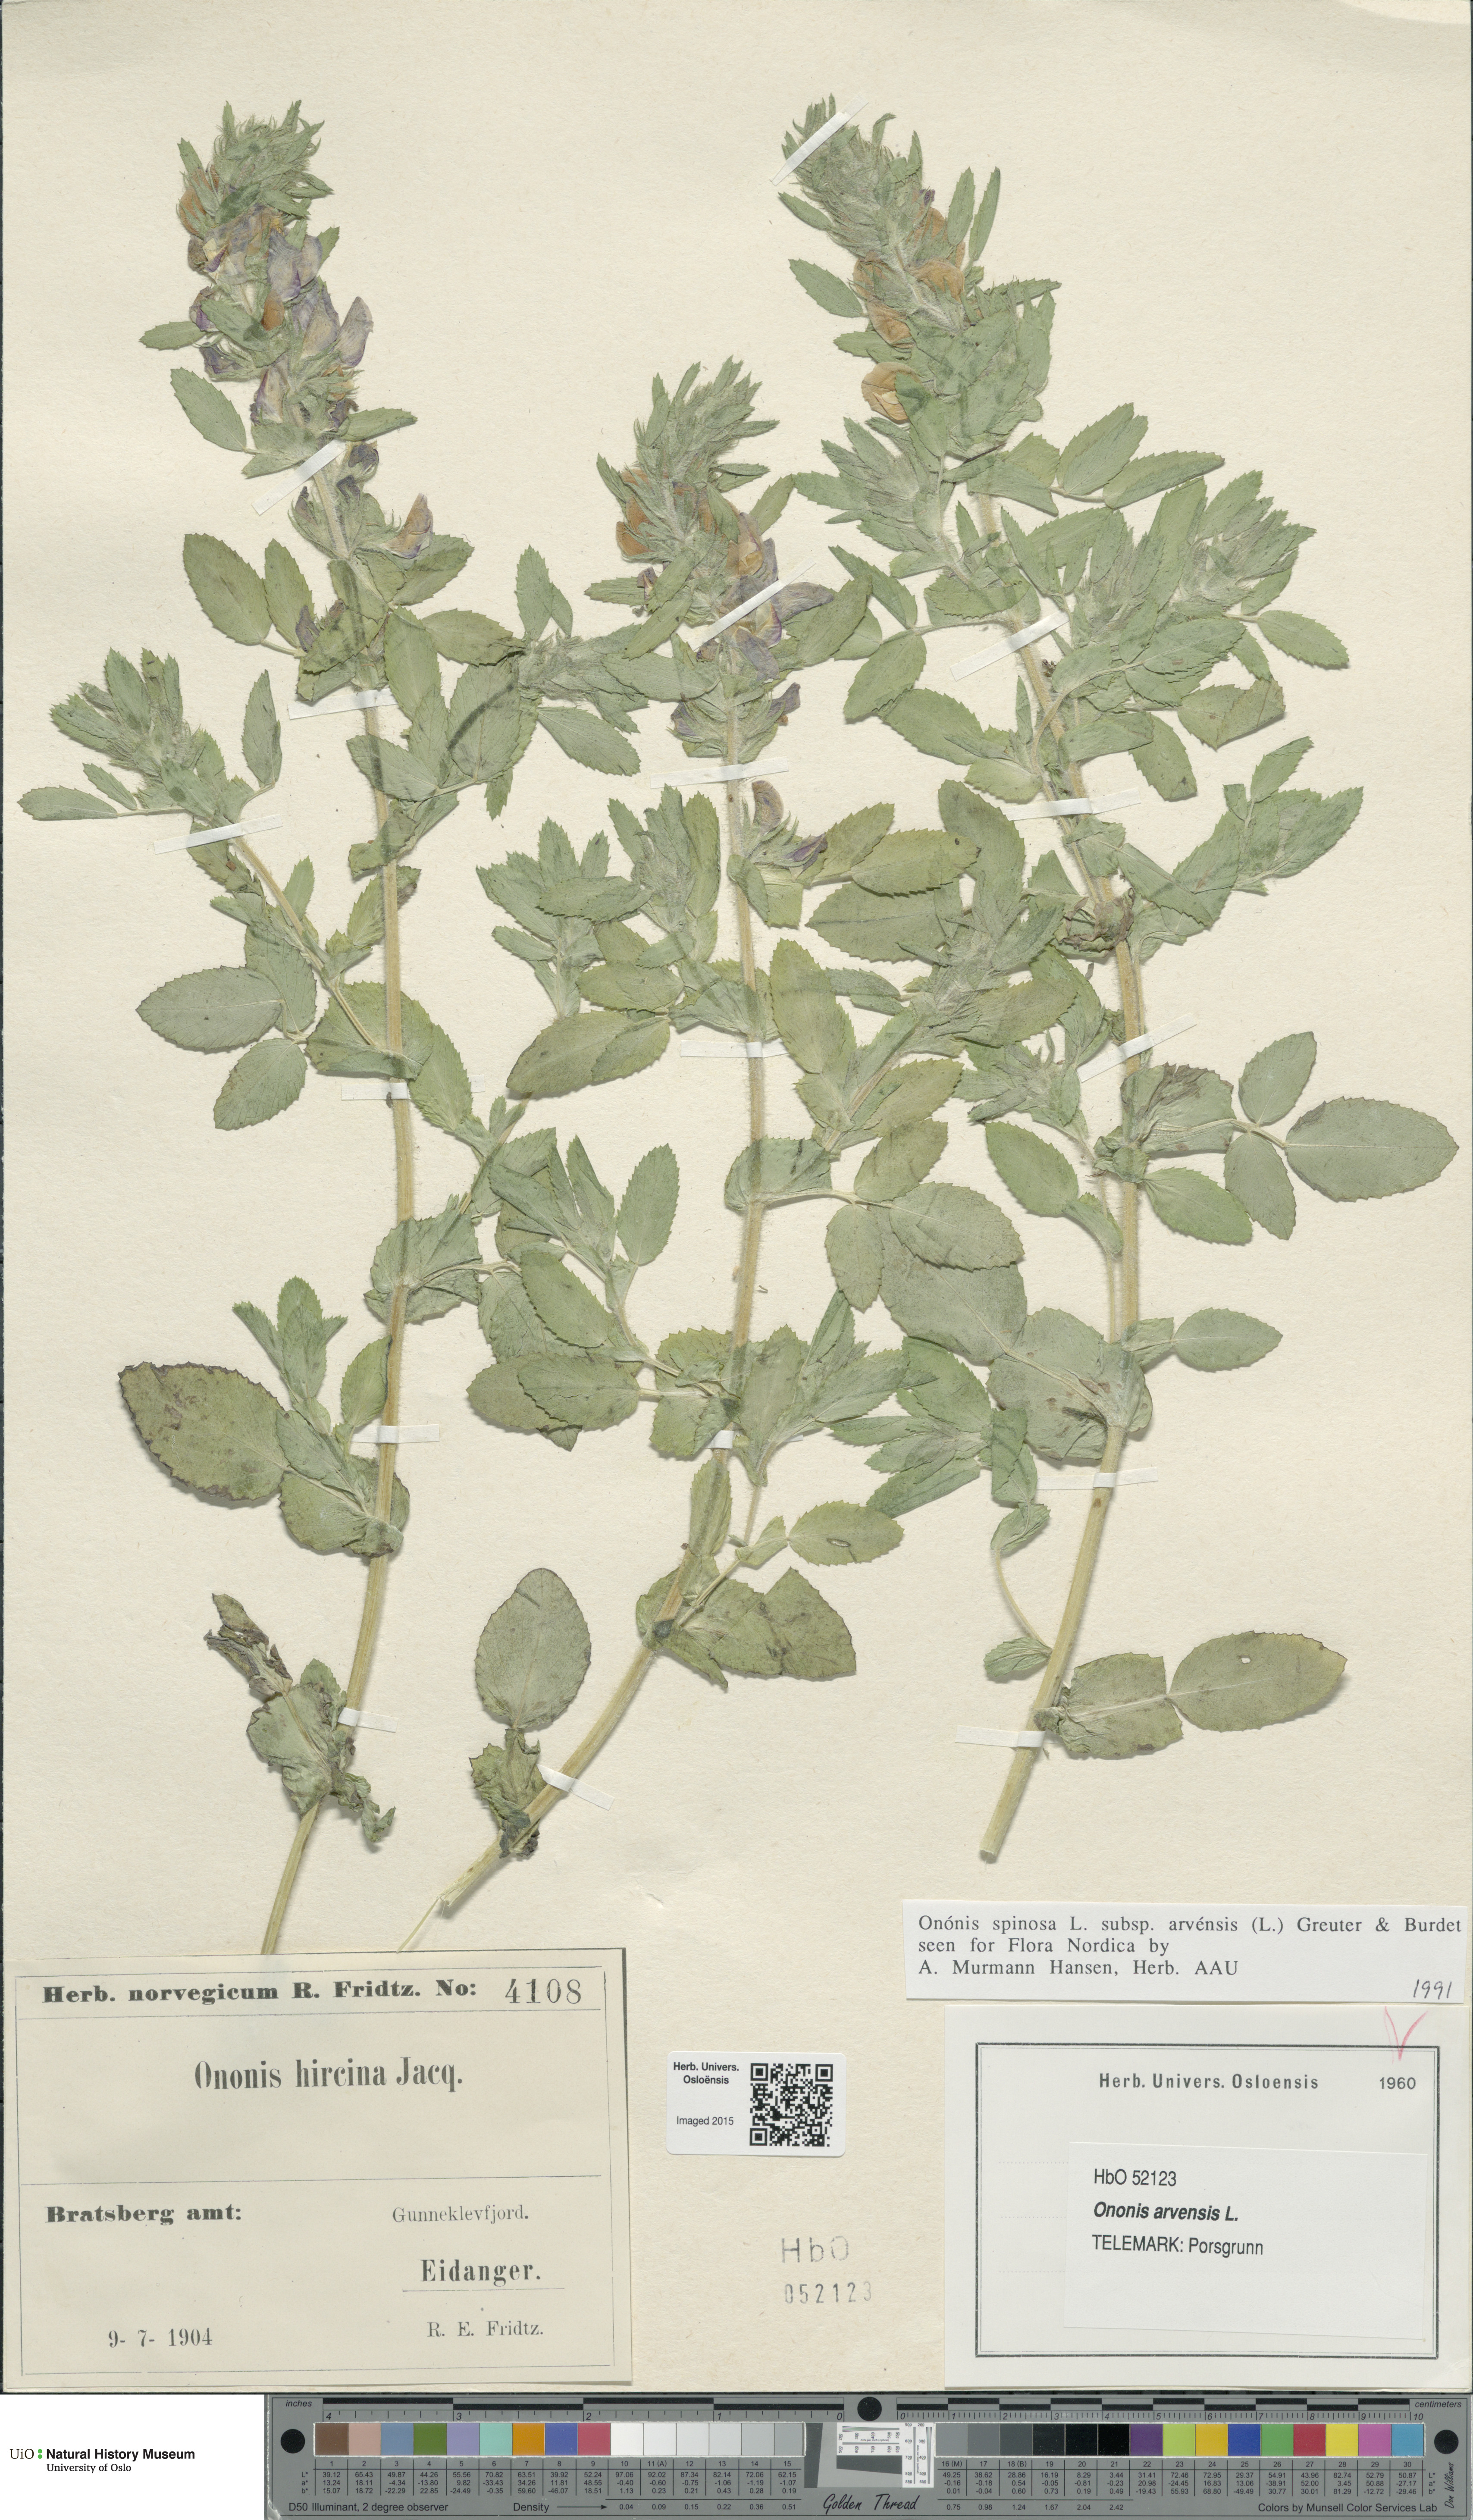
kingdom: Plantae
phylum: Tracheophyta
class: Magnoliopsida
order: Fabales
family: Fabaceae
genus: Ononis
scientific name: Ononis arvensis
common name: Field restharrow
